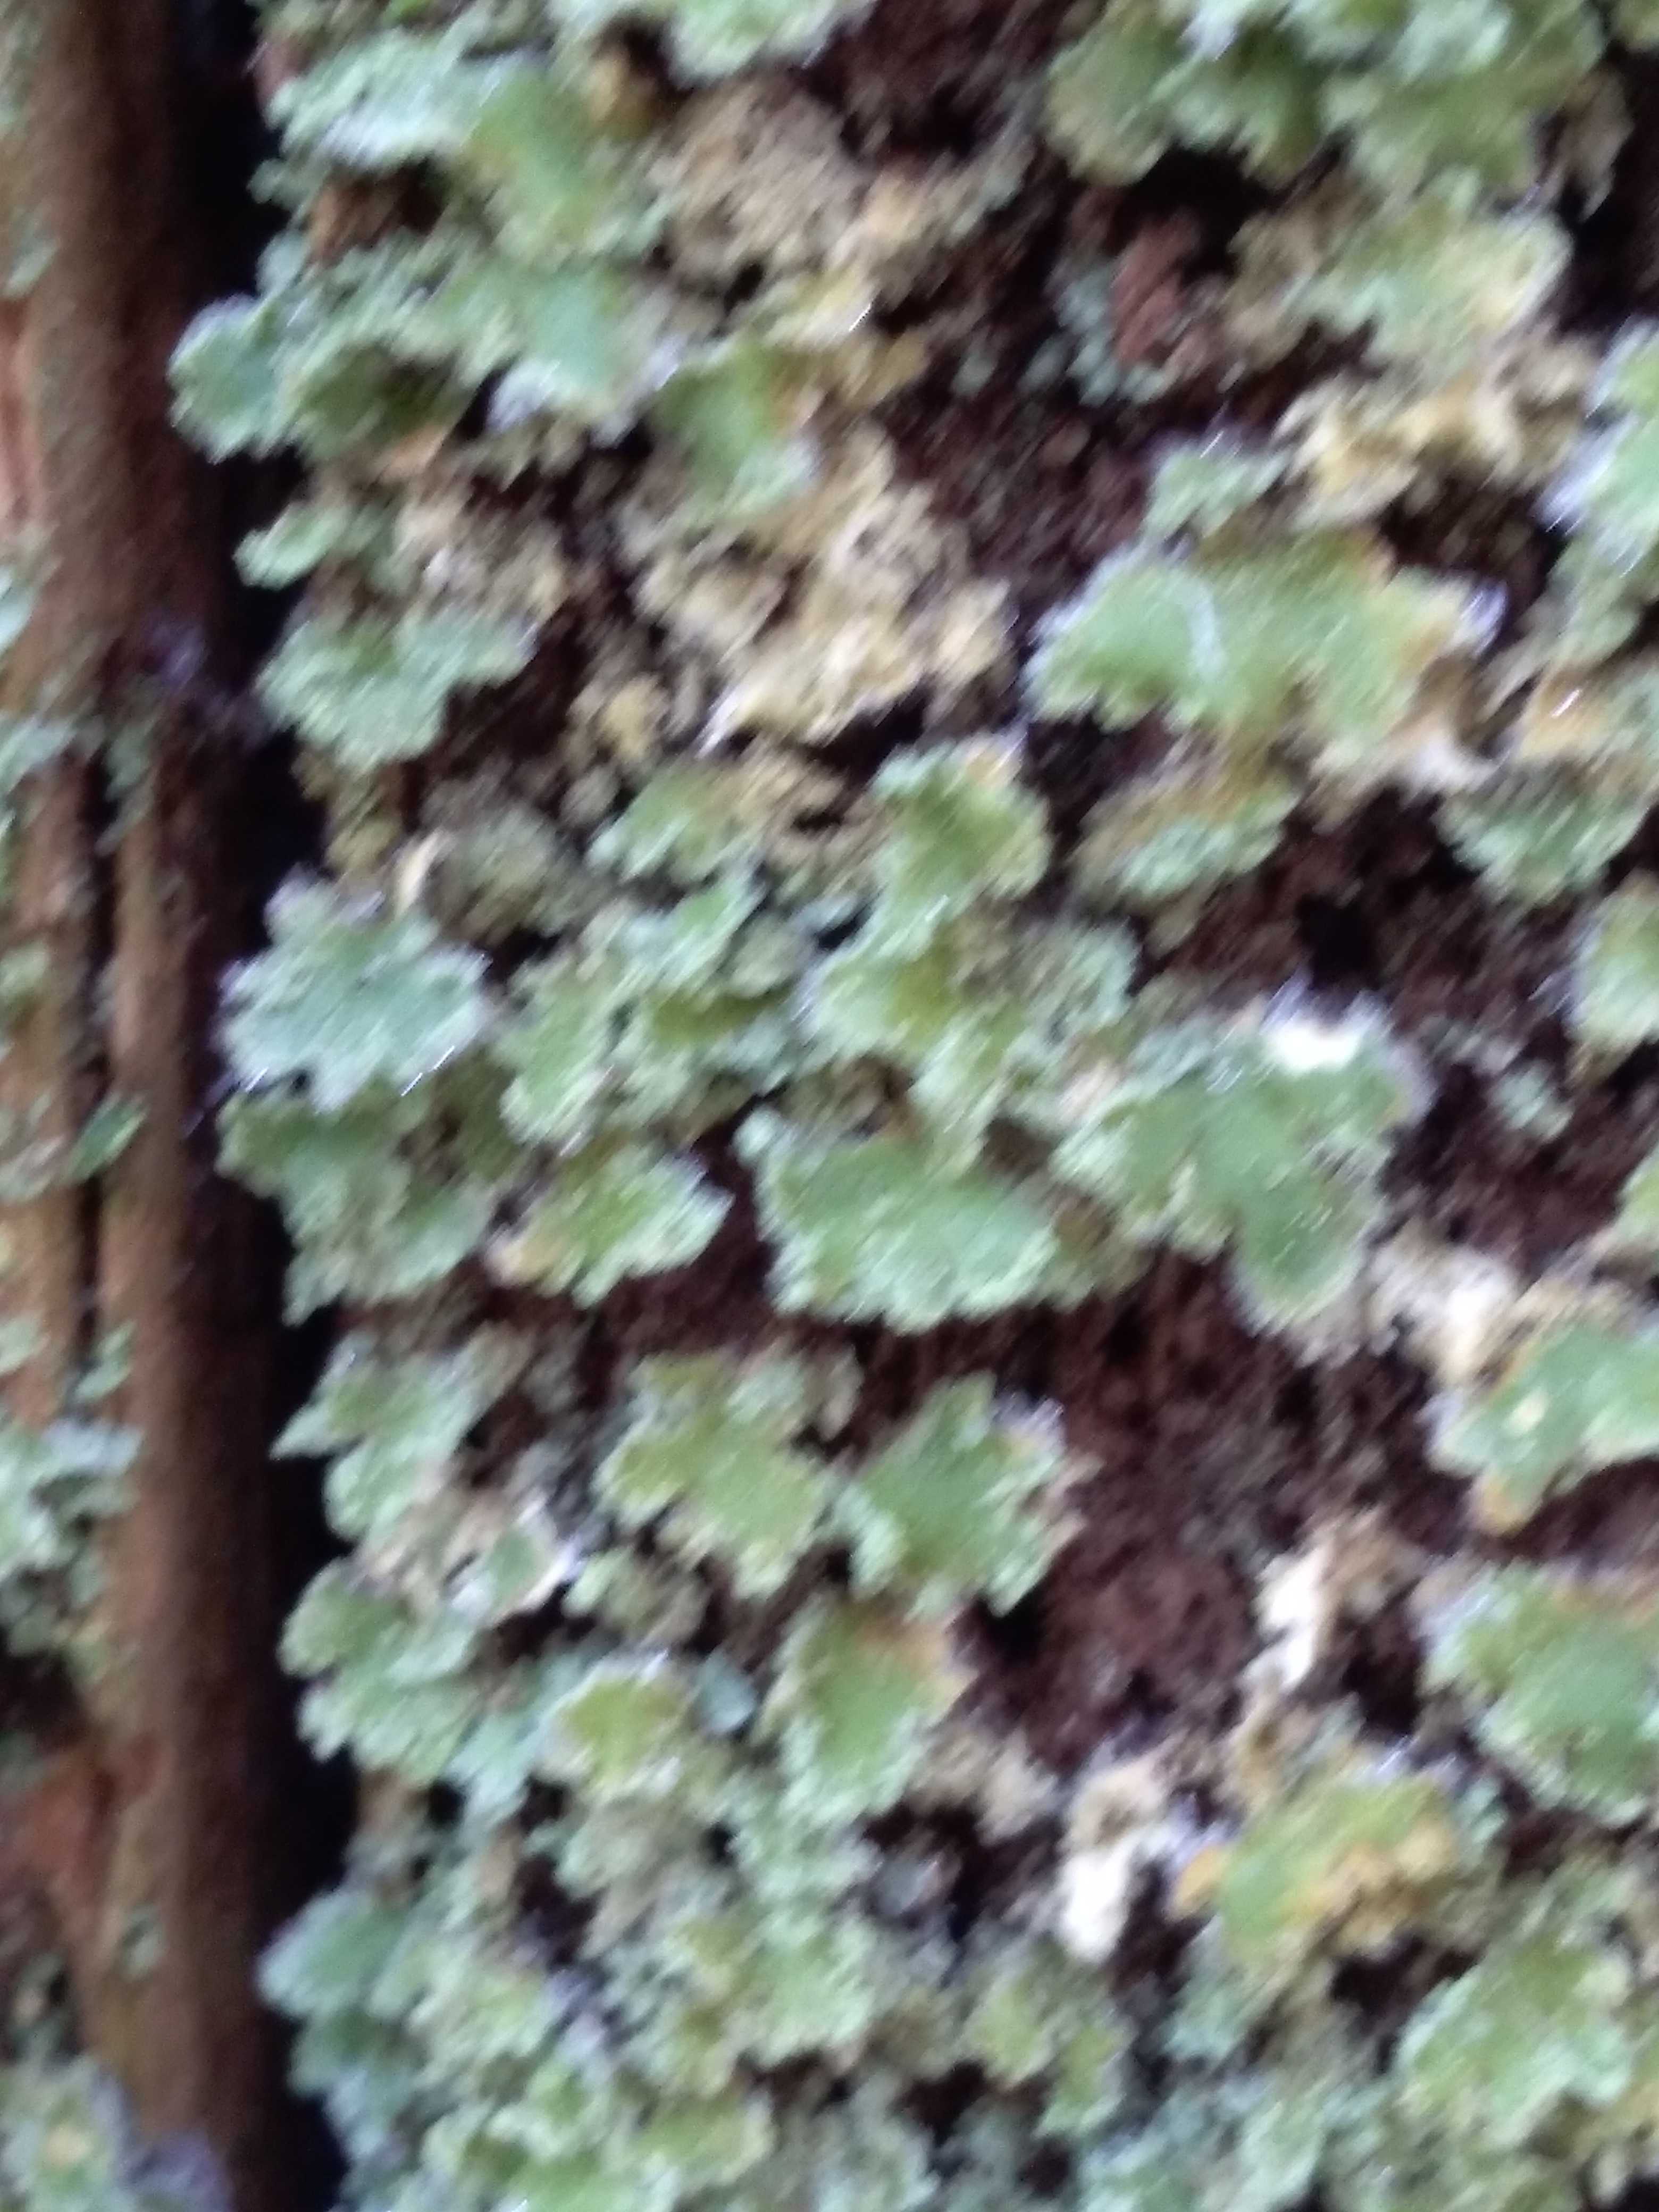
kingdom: Fungi
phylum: Ascomycota
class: Lecanoromycetes
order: Lecanorales
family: Cladoniaceae
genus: Cladonia
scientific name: Cladonia
